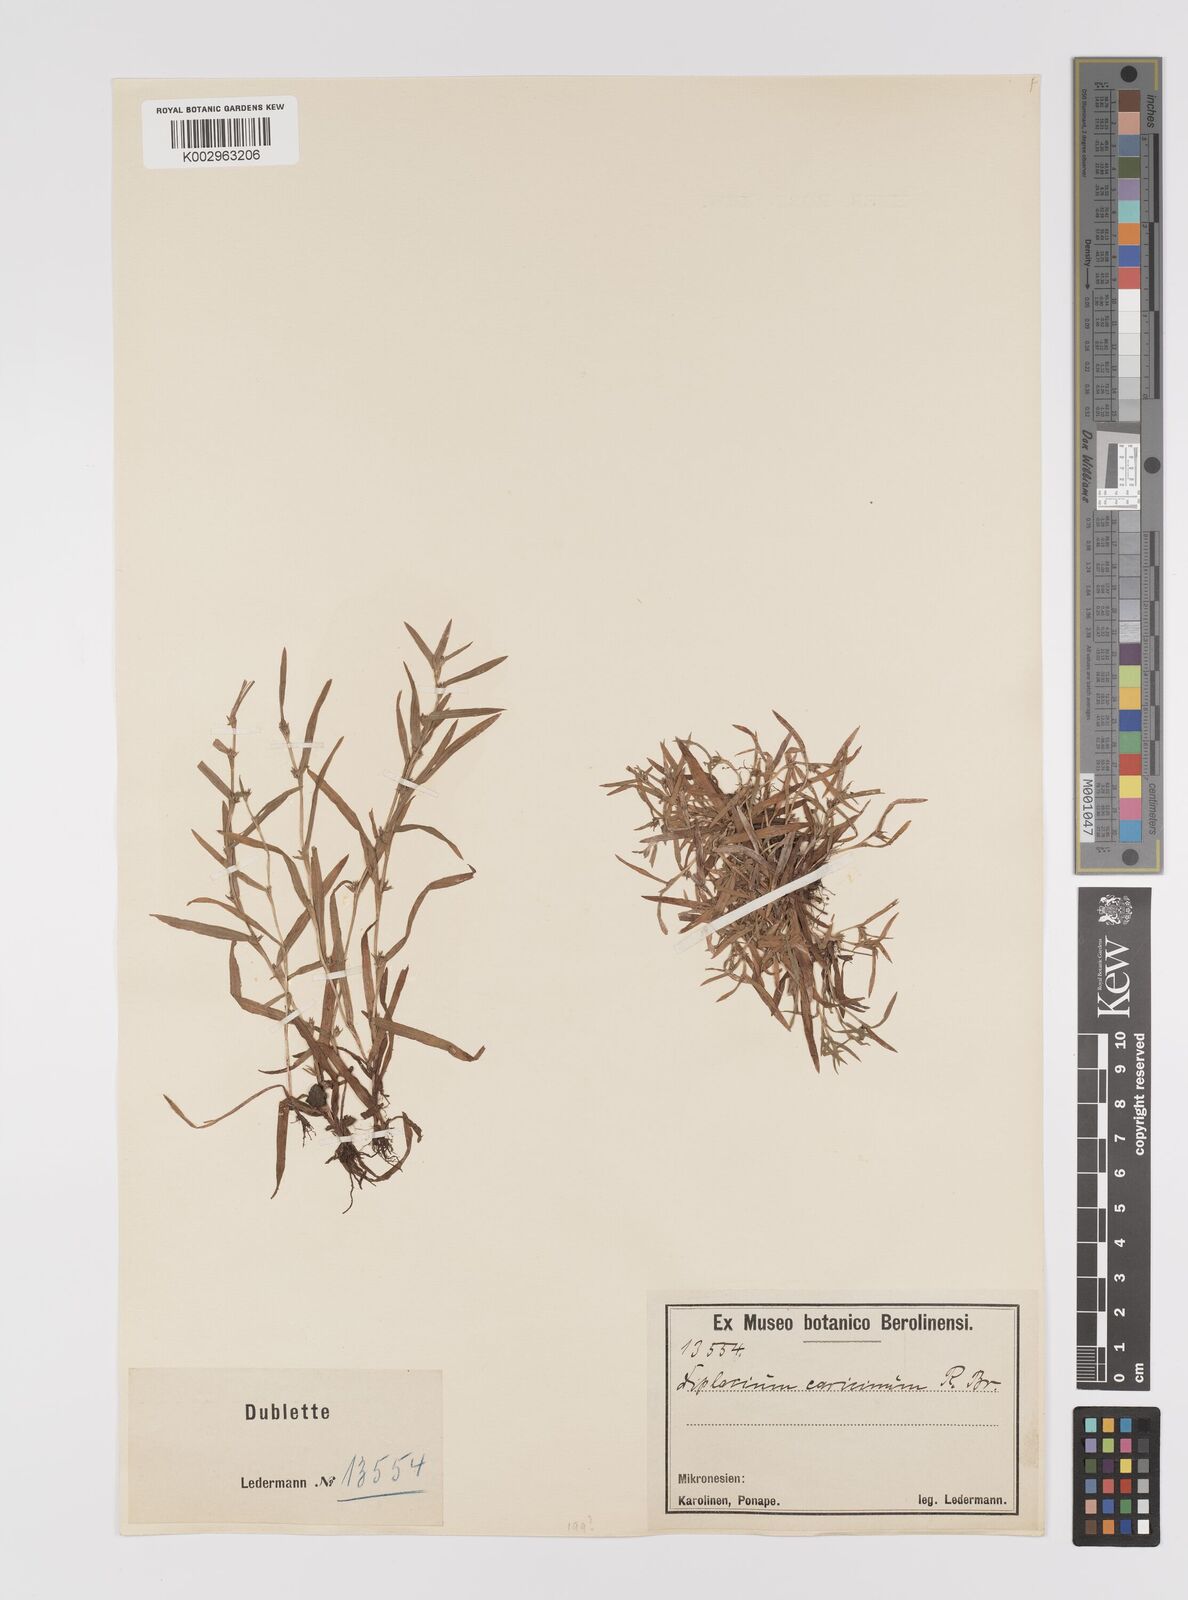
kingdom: Plantae
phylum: Tracheophyta
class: Liliopsida
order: Poales
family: Cyperaceae
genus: Diplacrum
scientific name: Diplacrum caricinum
